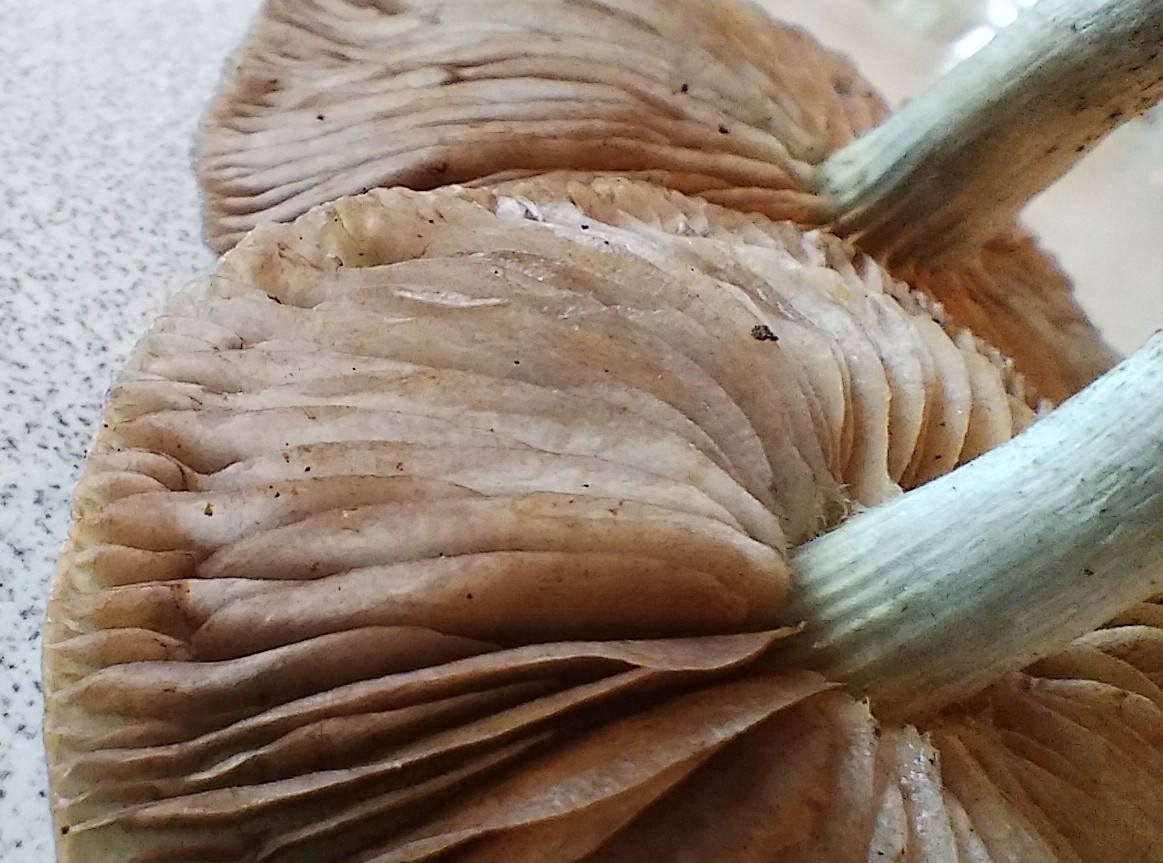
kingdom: Fungi
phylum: Basidiomycota
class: Agaricomycetes
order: Agaricales
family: Strophariaceae
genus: Stropharia
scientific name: Stropharia cyanea
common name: blågrøn bredblad
